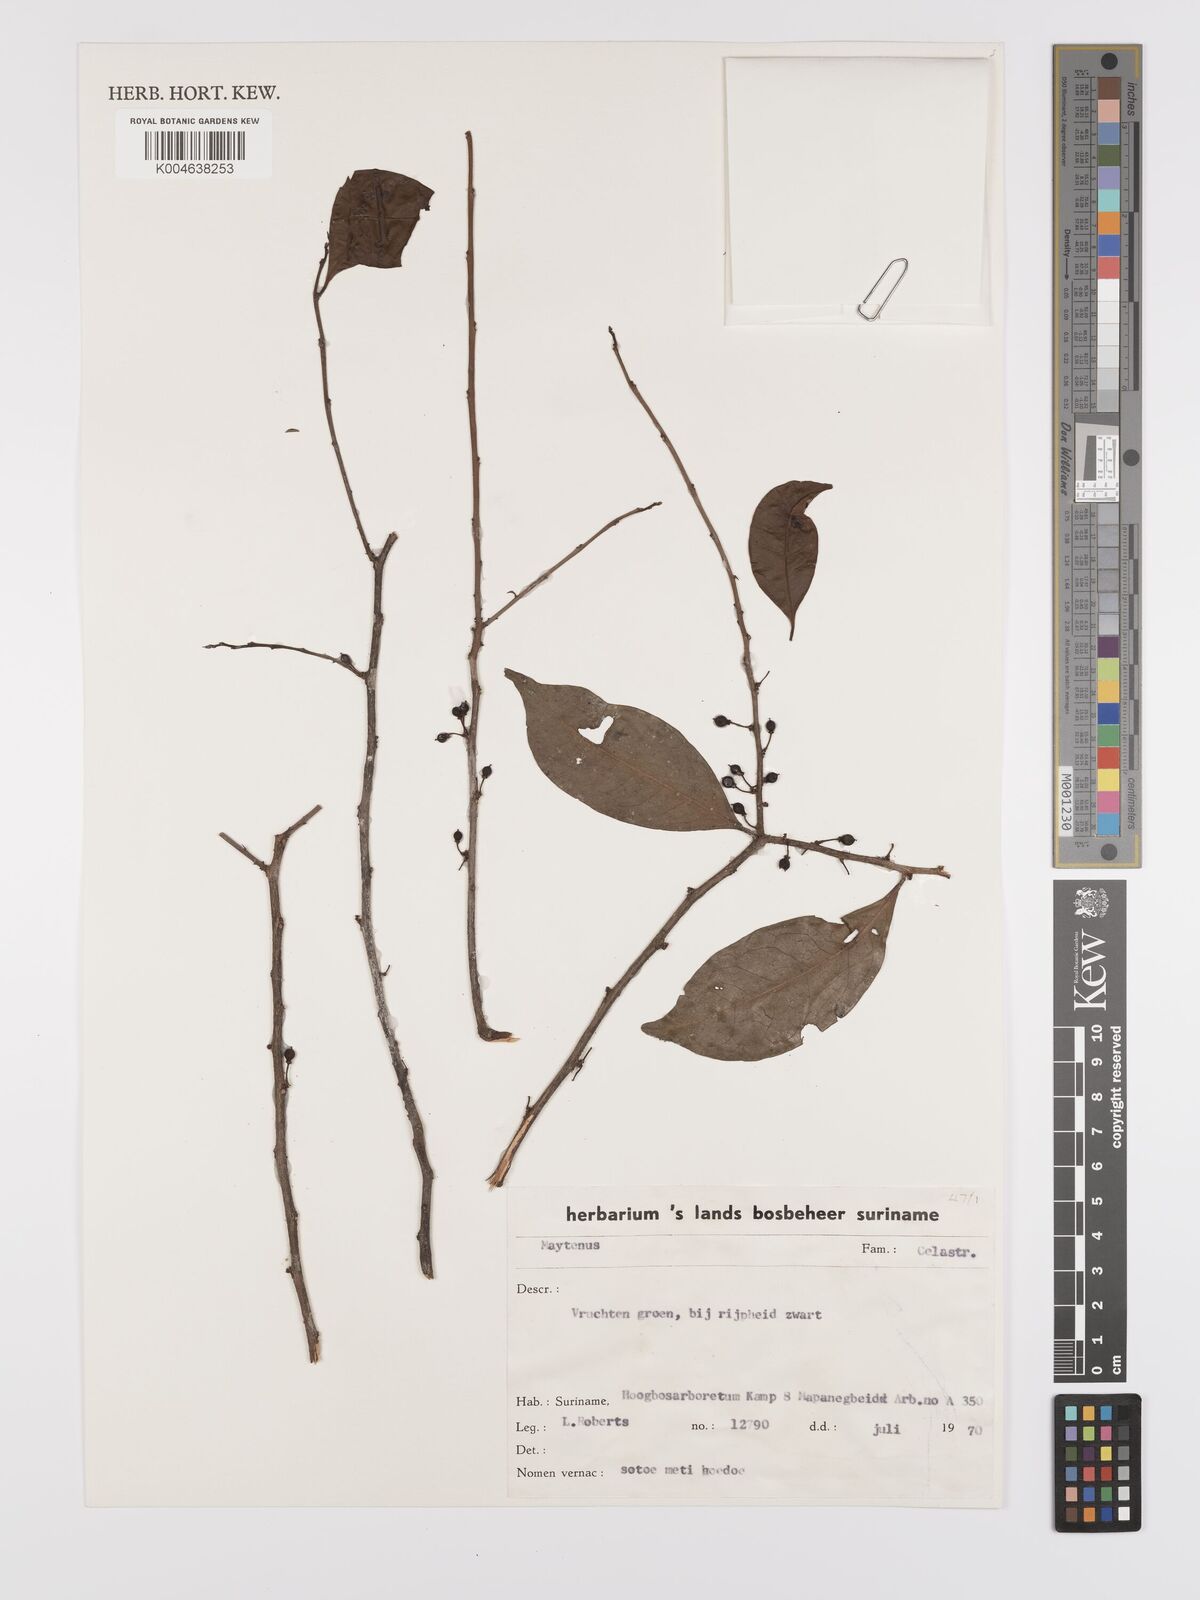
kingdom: Plantae
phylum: Tracheophyta
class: Magnoliopsida
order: Celastrales
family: Celastraceae
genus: Maytenus
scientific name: Maytenus
